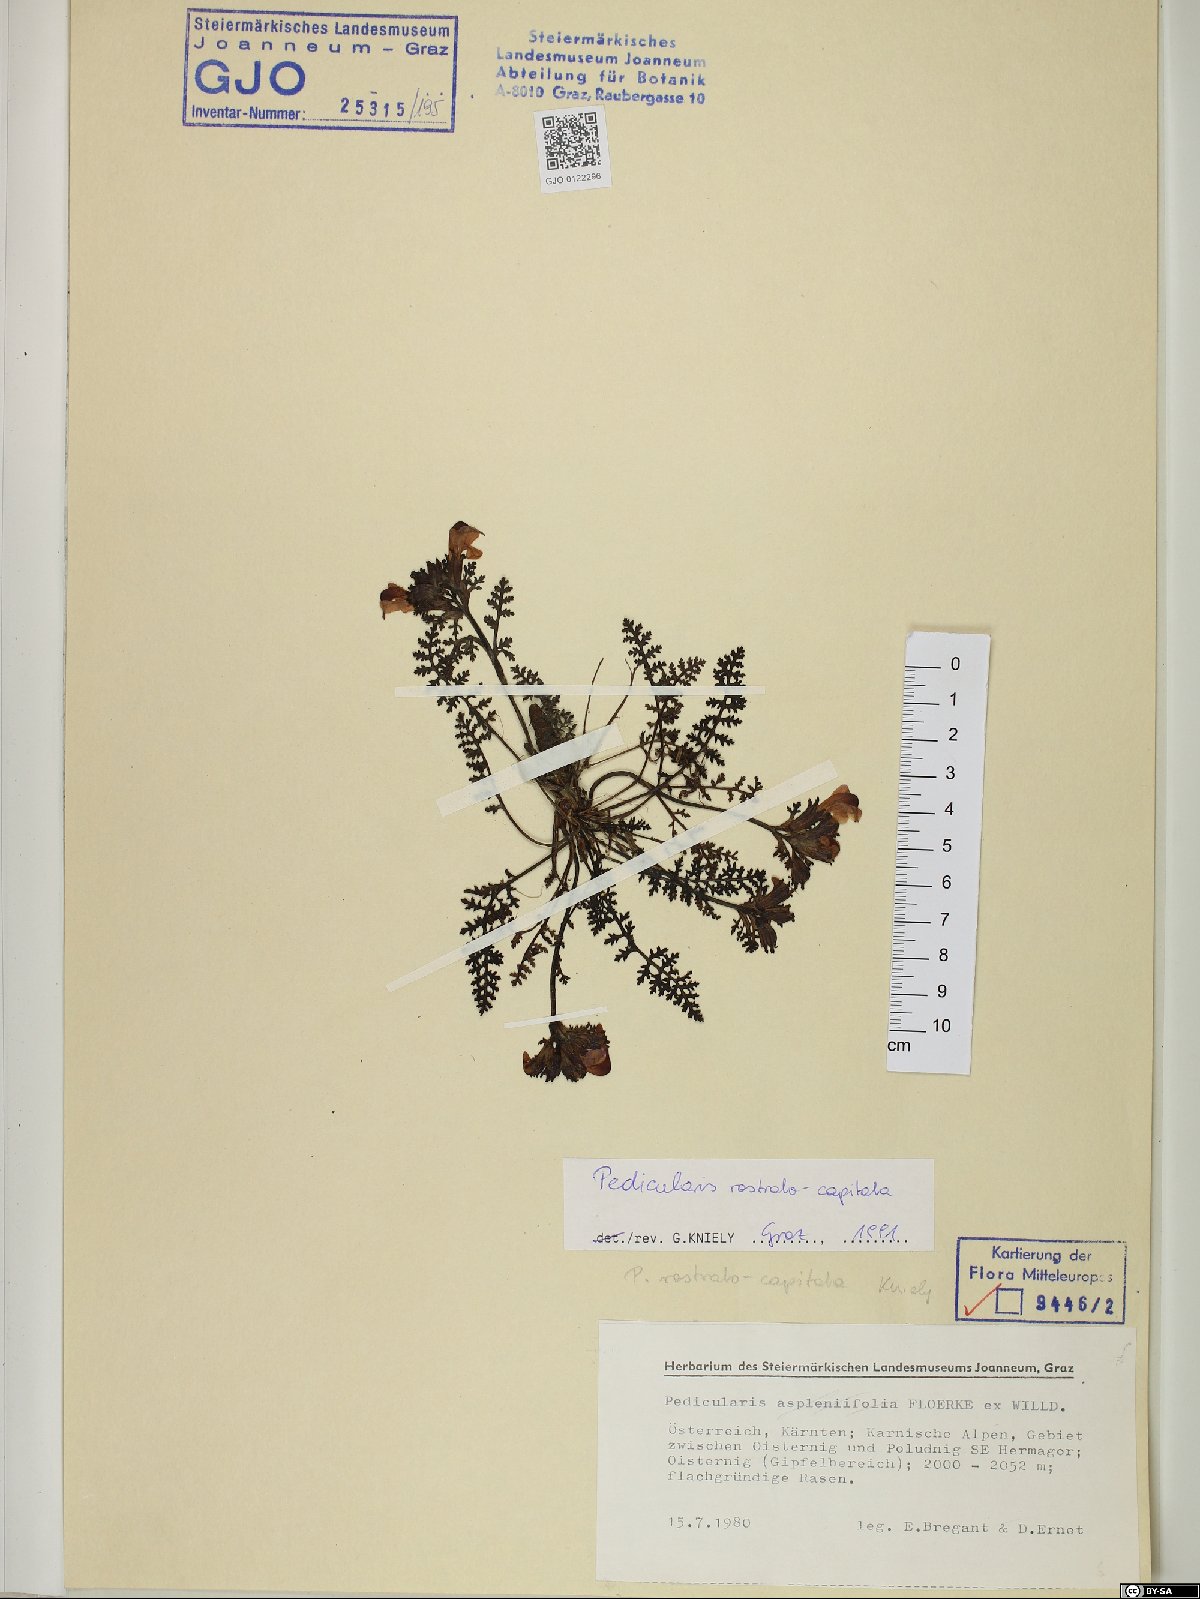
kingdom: Plantae
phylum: Tracheophyta
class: Magnoliopsida
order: Lamiales
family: Orobanchaceae
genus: Pedicularis
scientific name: Pedicularis rostratocapitata
